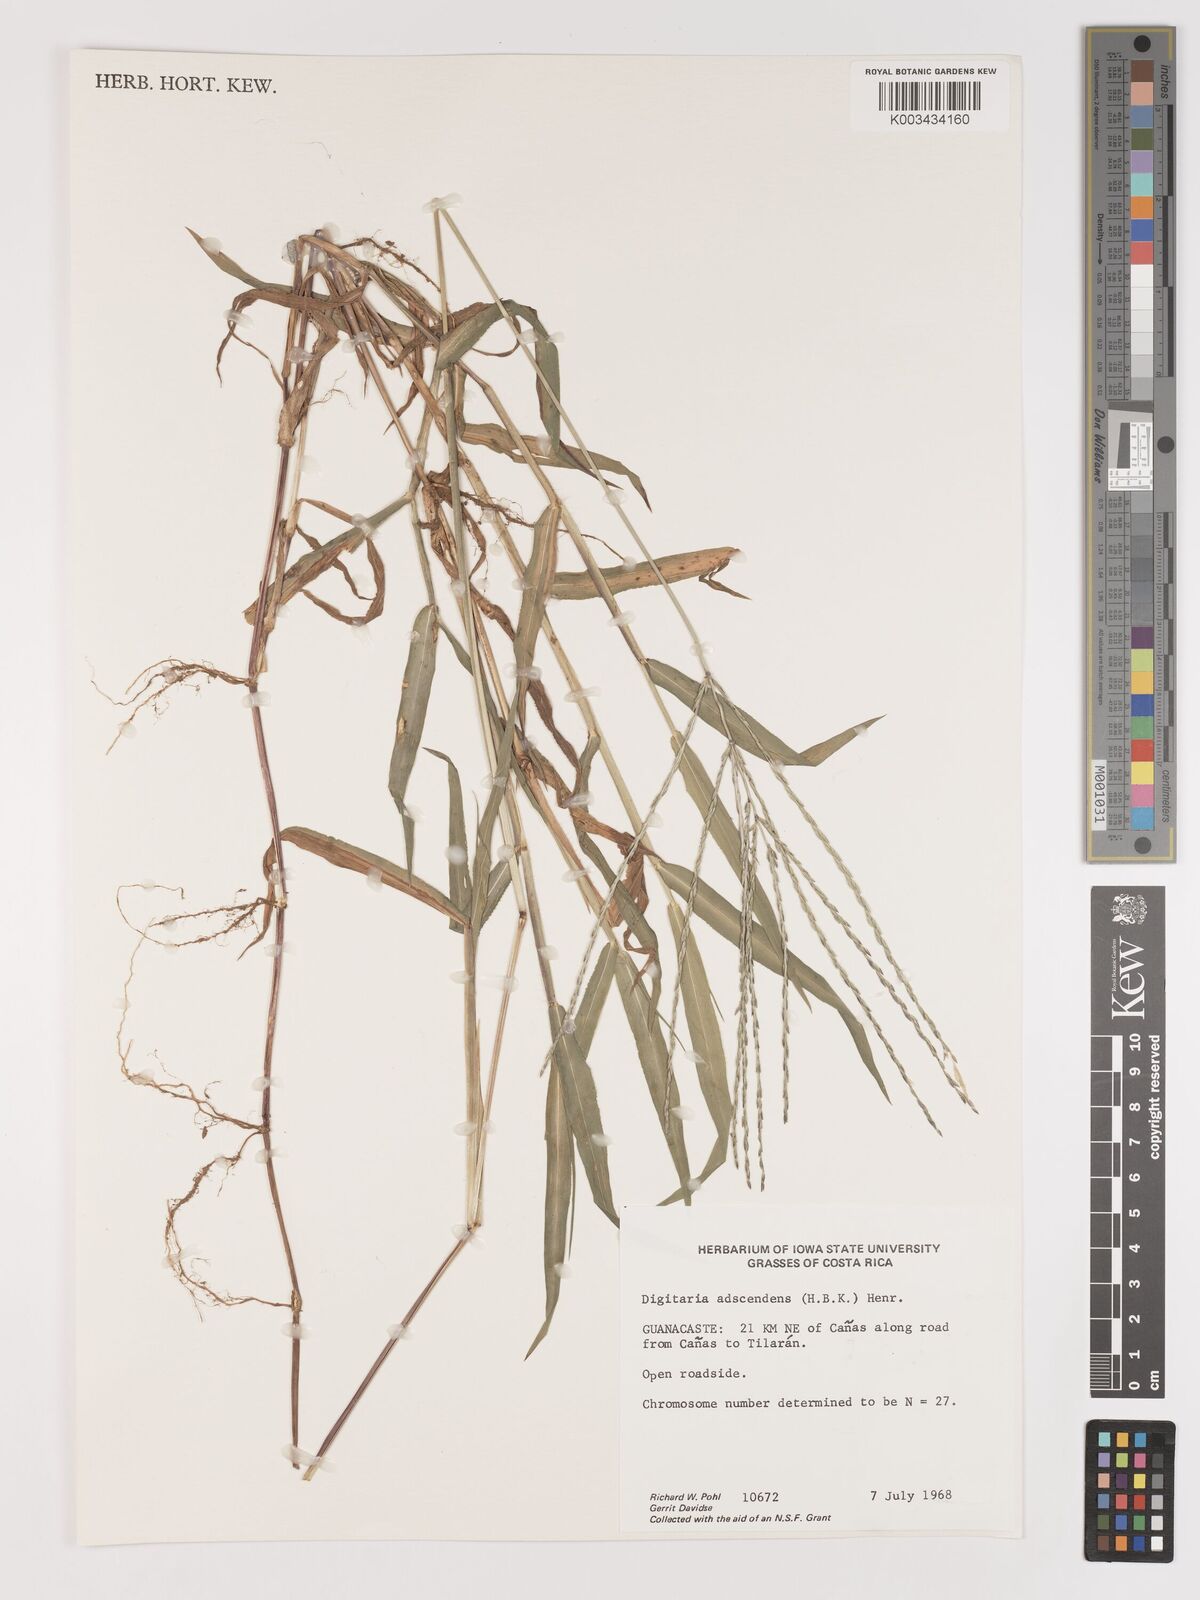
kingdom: Plantae
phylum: Tracheophyta
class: Liliopsida
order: Poales
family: Poaceae
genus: Digitaria
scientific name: Digitaria ciliaris
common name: Tropical finger-grass
